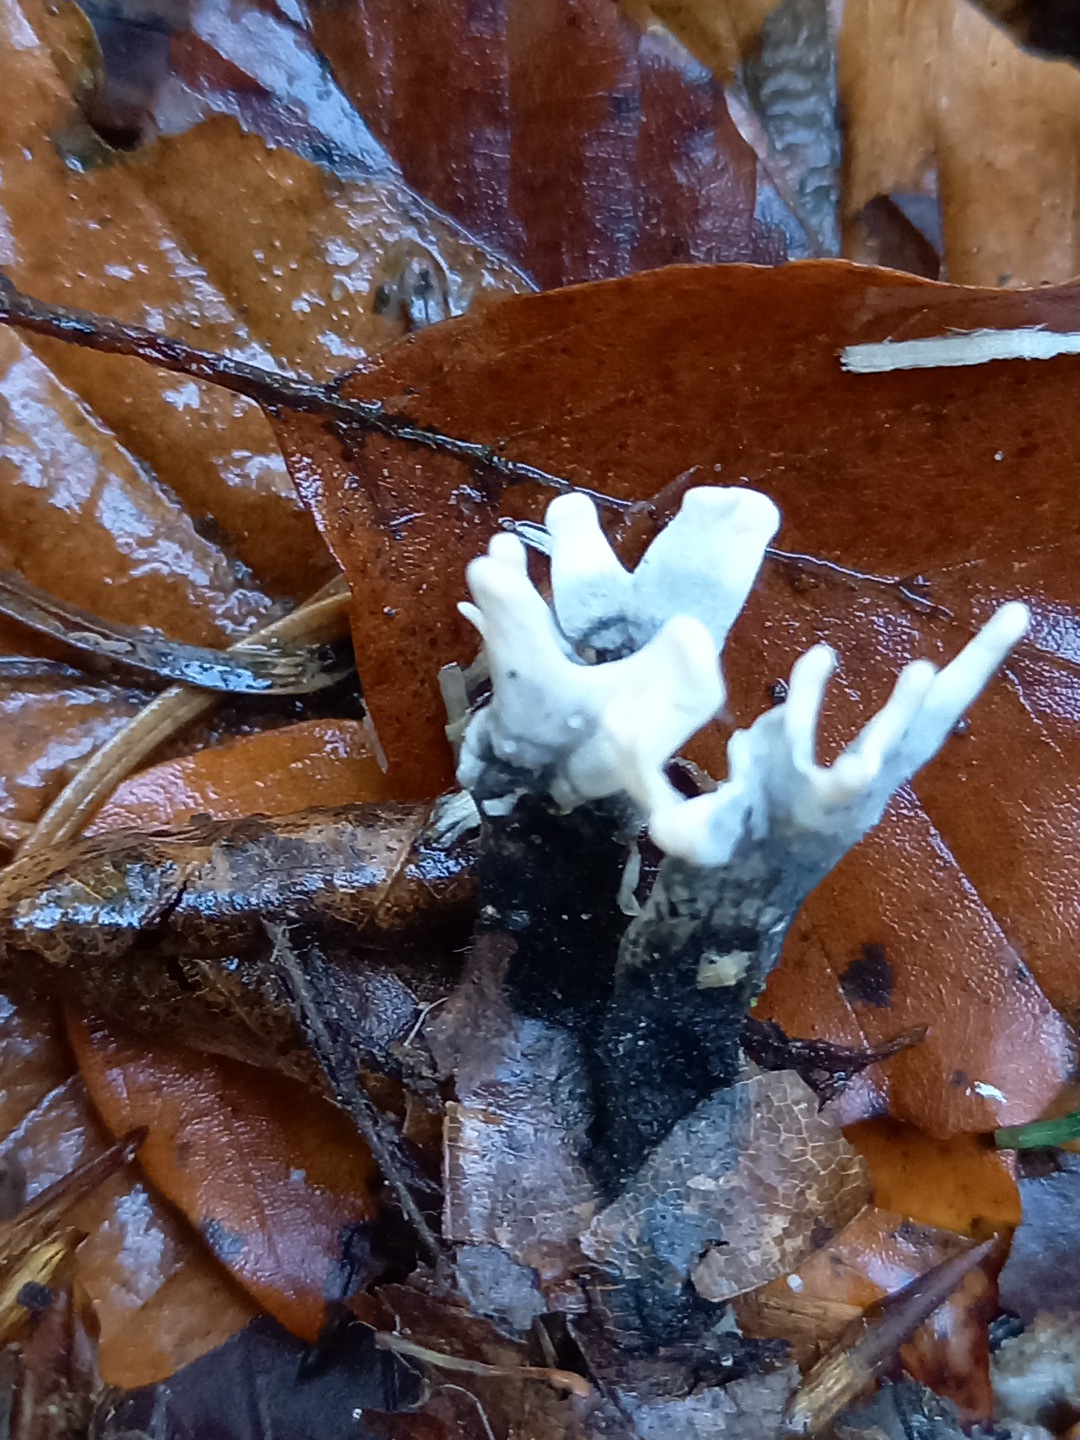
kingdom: Fungi
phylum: Ascomycota
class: Sordariomycetes
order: Xylariales
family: Xylariaceae
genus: Xylaria
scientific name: Xylaria hypoxylon
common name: grenet stødsvamp
